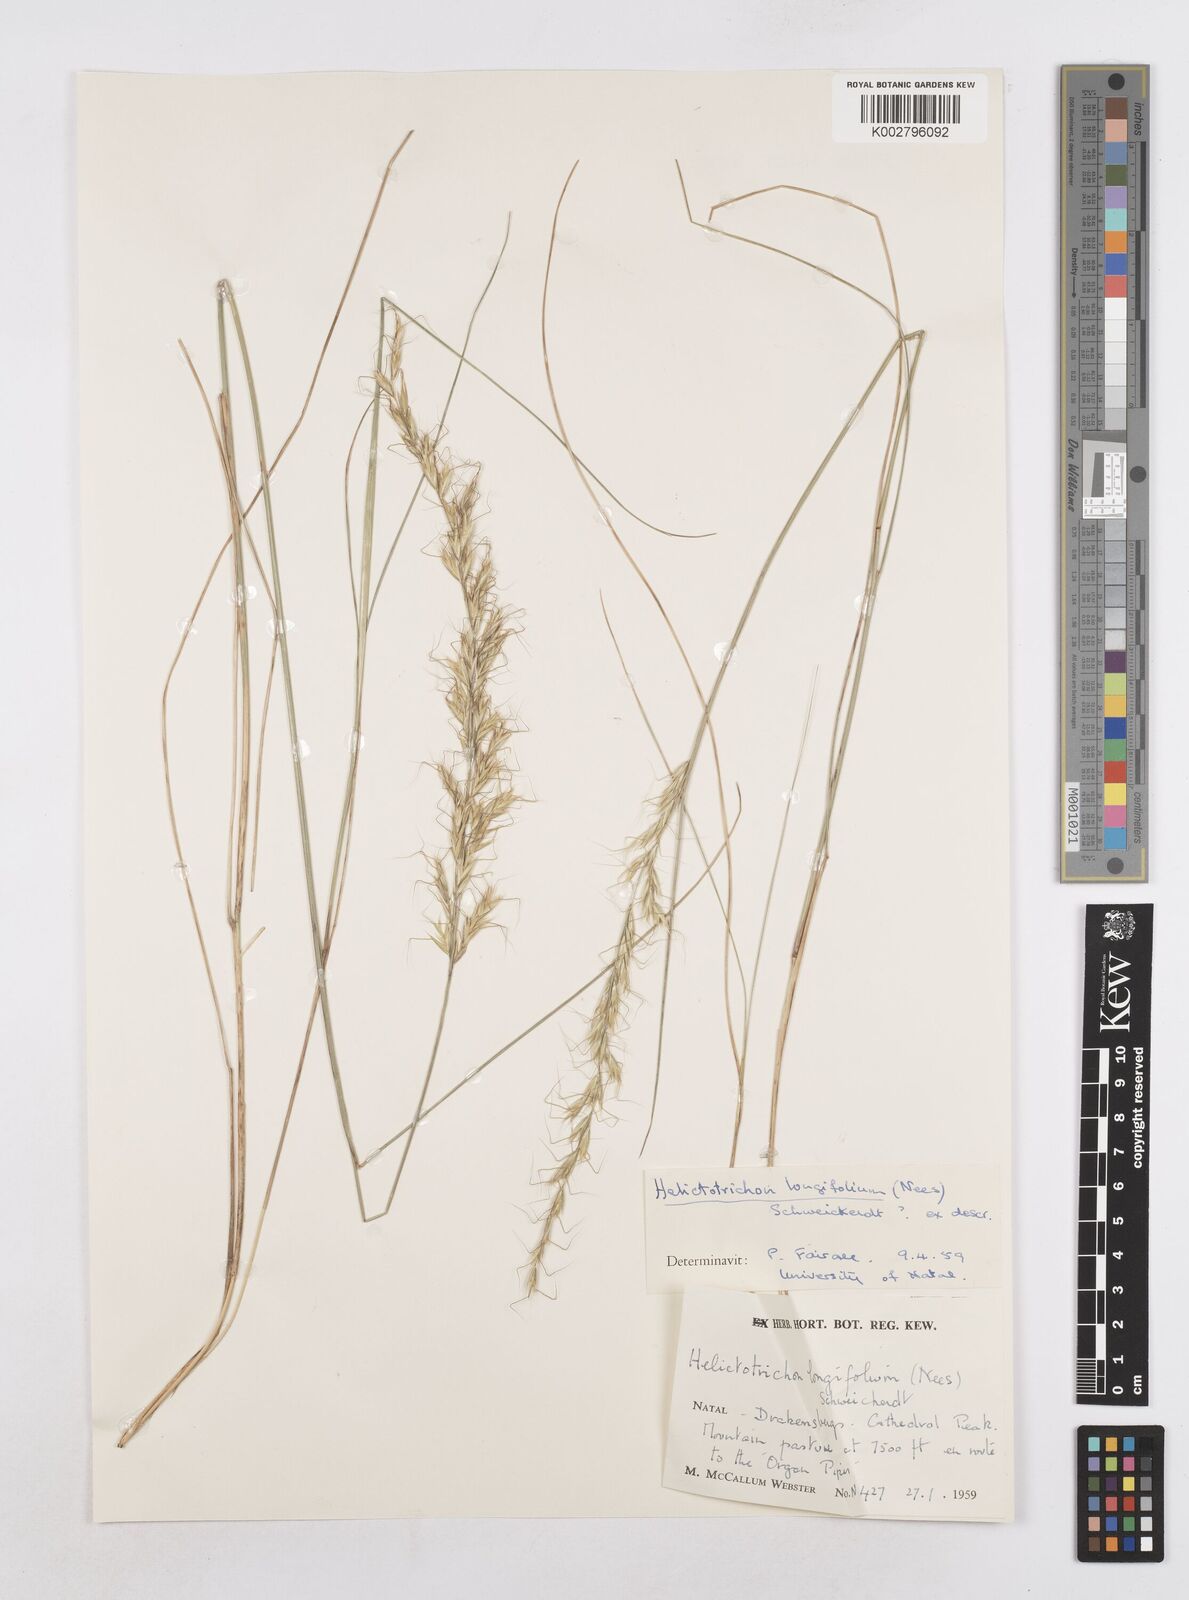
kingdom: Plantae
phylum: Tracheophyta
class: Liliopsida
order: Poales
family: Poaceae
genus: Trisetopsis
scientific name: Trisetopsis longifolia
